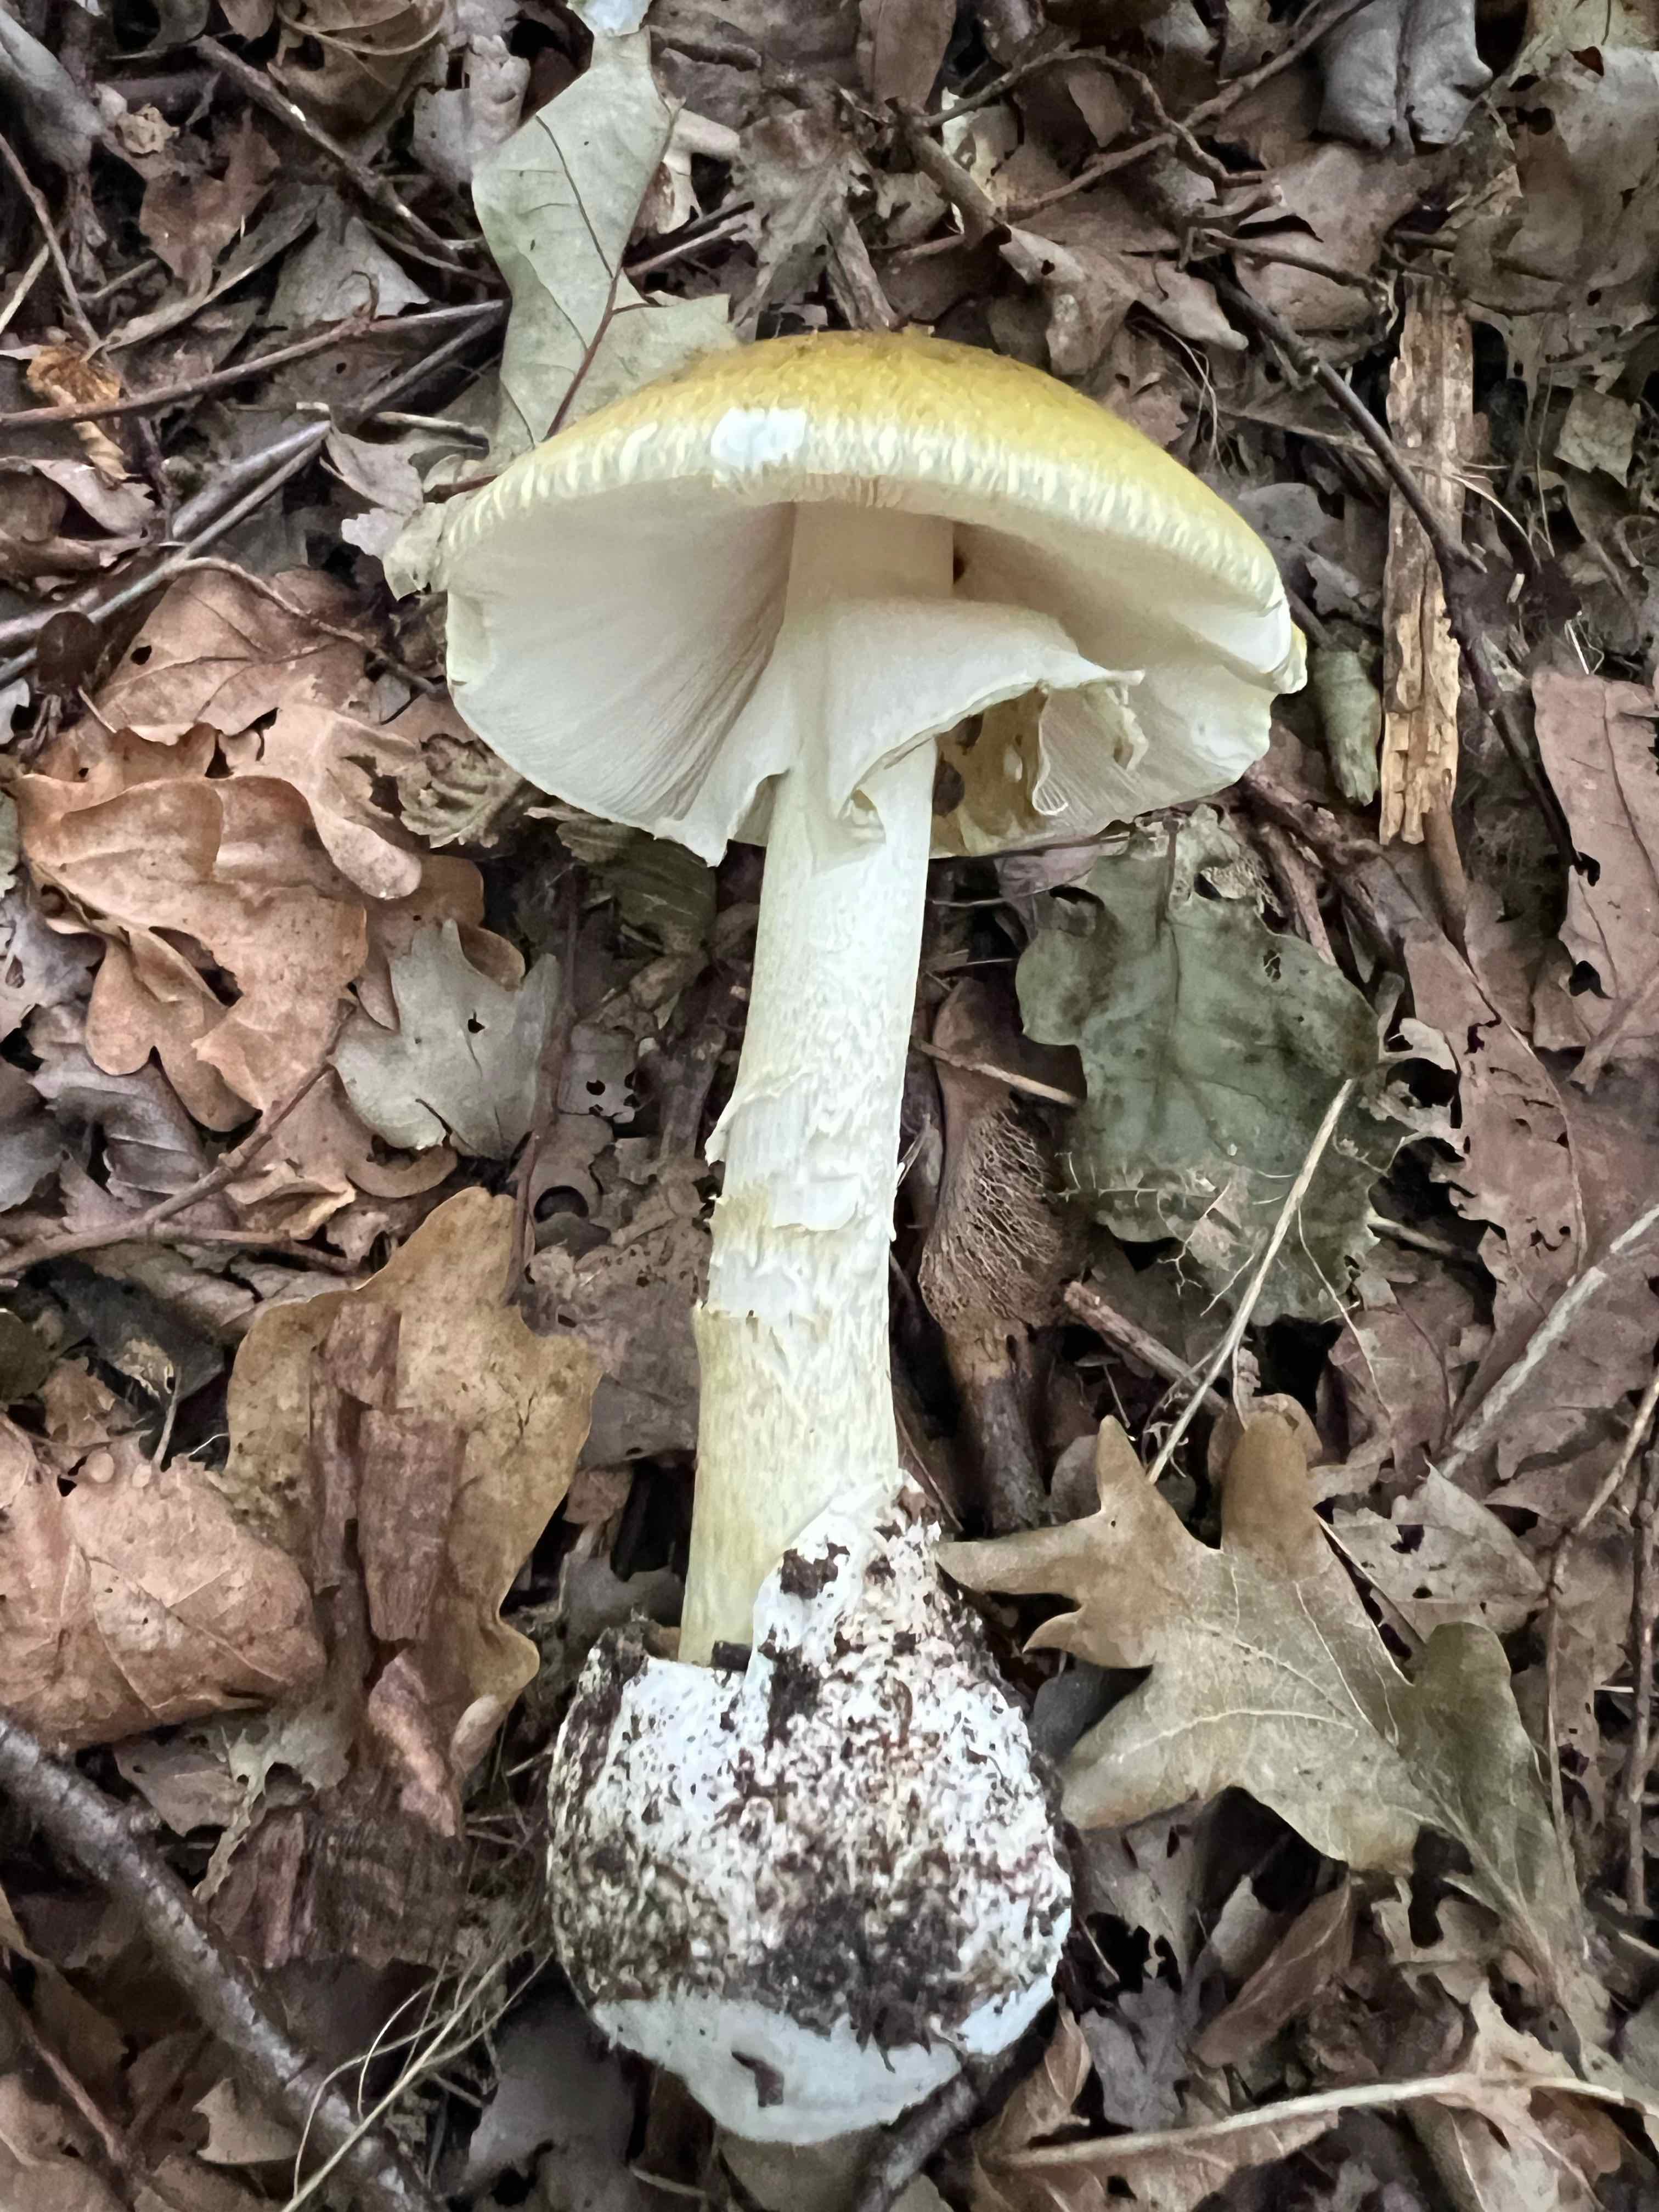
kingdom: Fungi
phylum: Basidiomycota
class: Agaricomycetes
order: Agaricales
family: Amanitaceae
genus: Amanita
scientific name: Amanita phalloides
